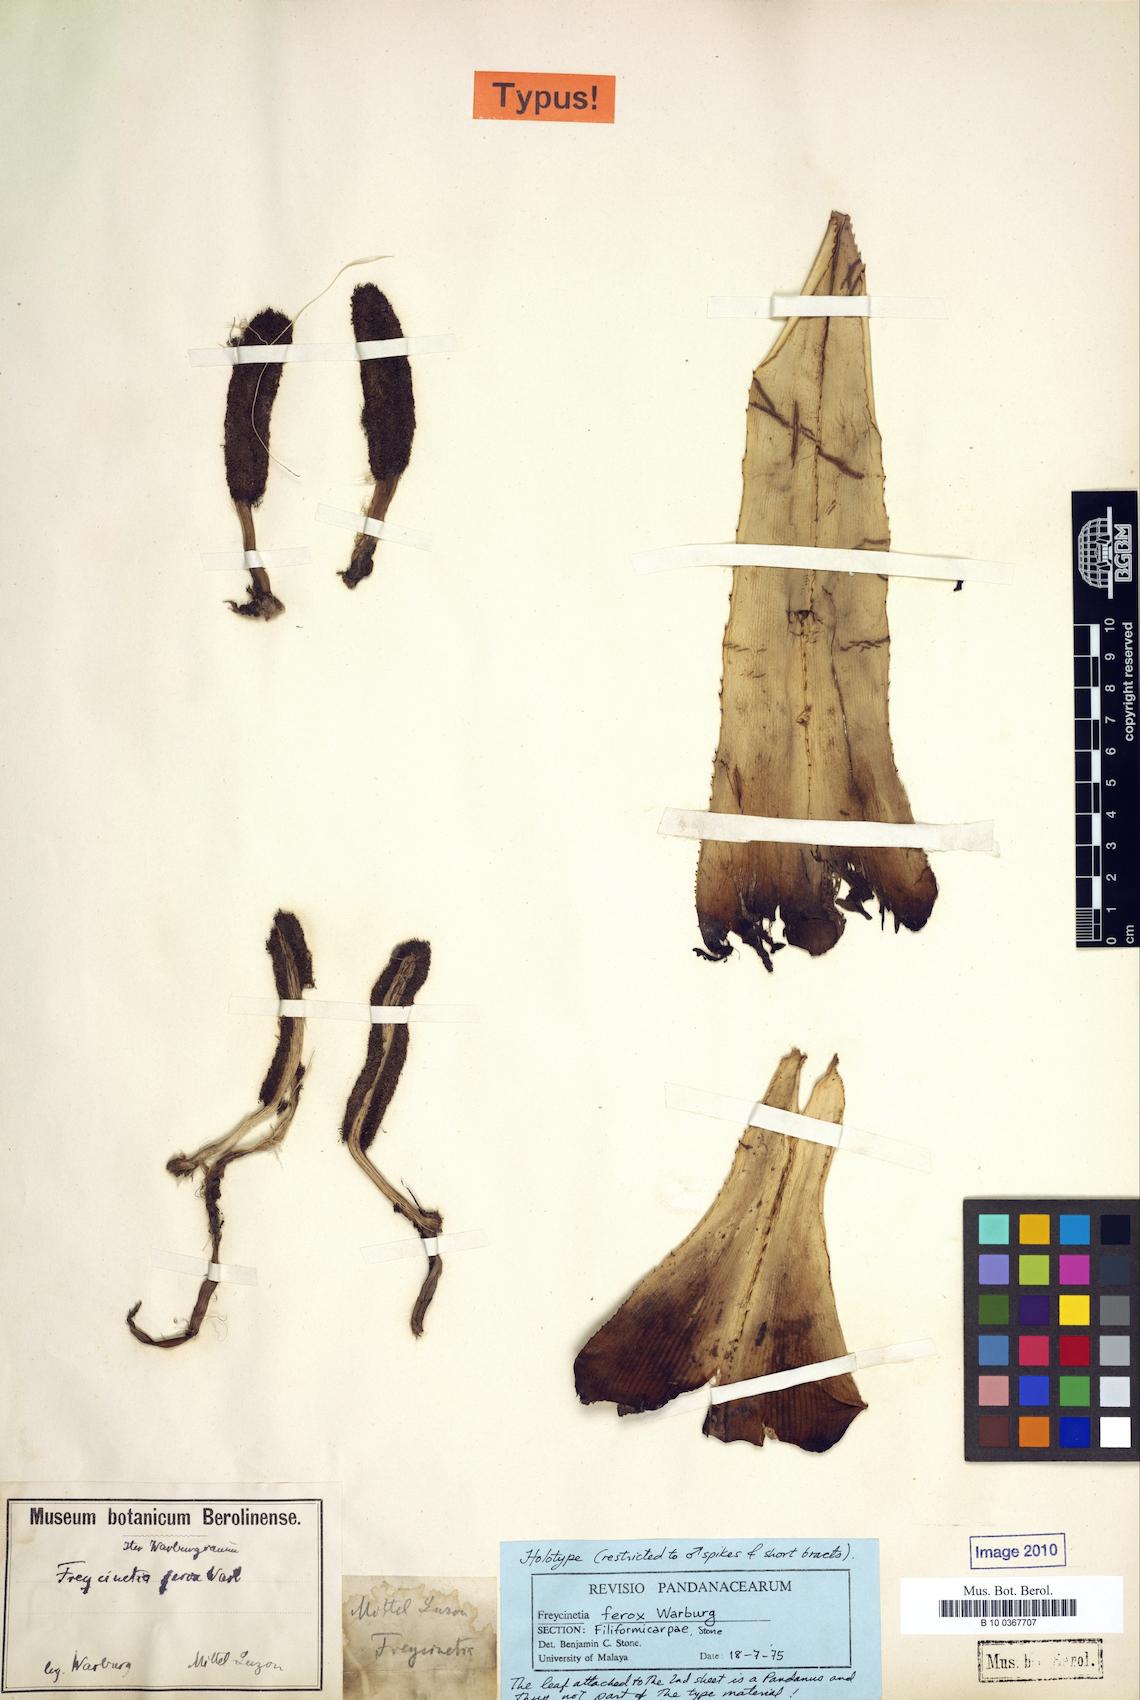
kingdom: Plantae
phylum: Tracheophyta
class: Liliopsida
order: Pandanales
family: Pandanaceae
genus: Freycinetia
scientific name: Freycinetia ferox
